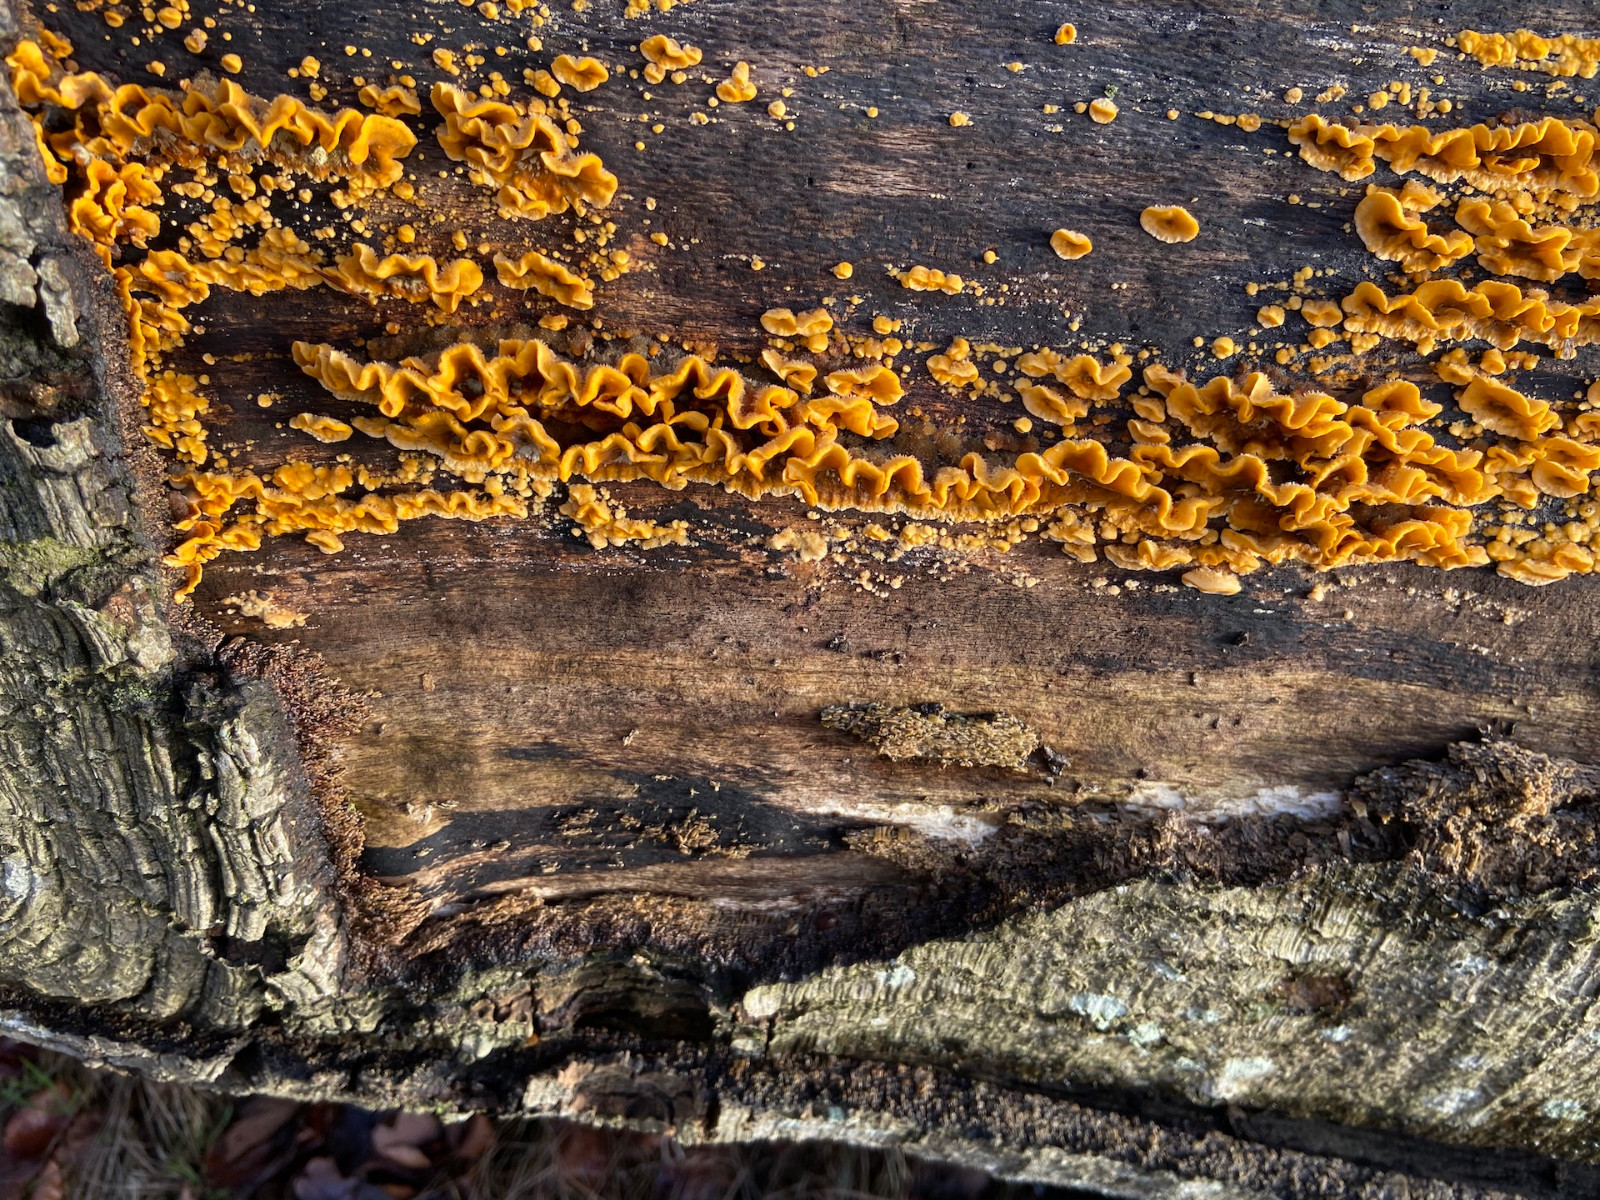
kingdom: Fungi
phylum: Basidiomycota
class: Agaricomycetes
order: Russulales
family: Stereaceae
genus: Stereum
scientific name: Stereum hirsutum
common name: håret lædersvamp
